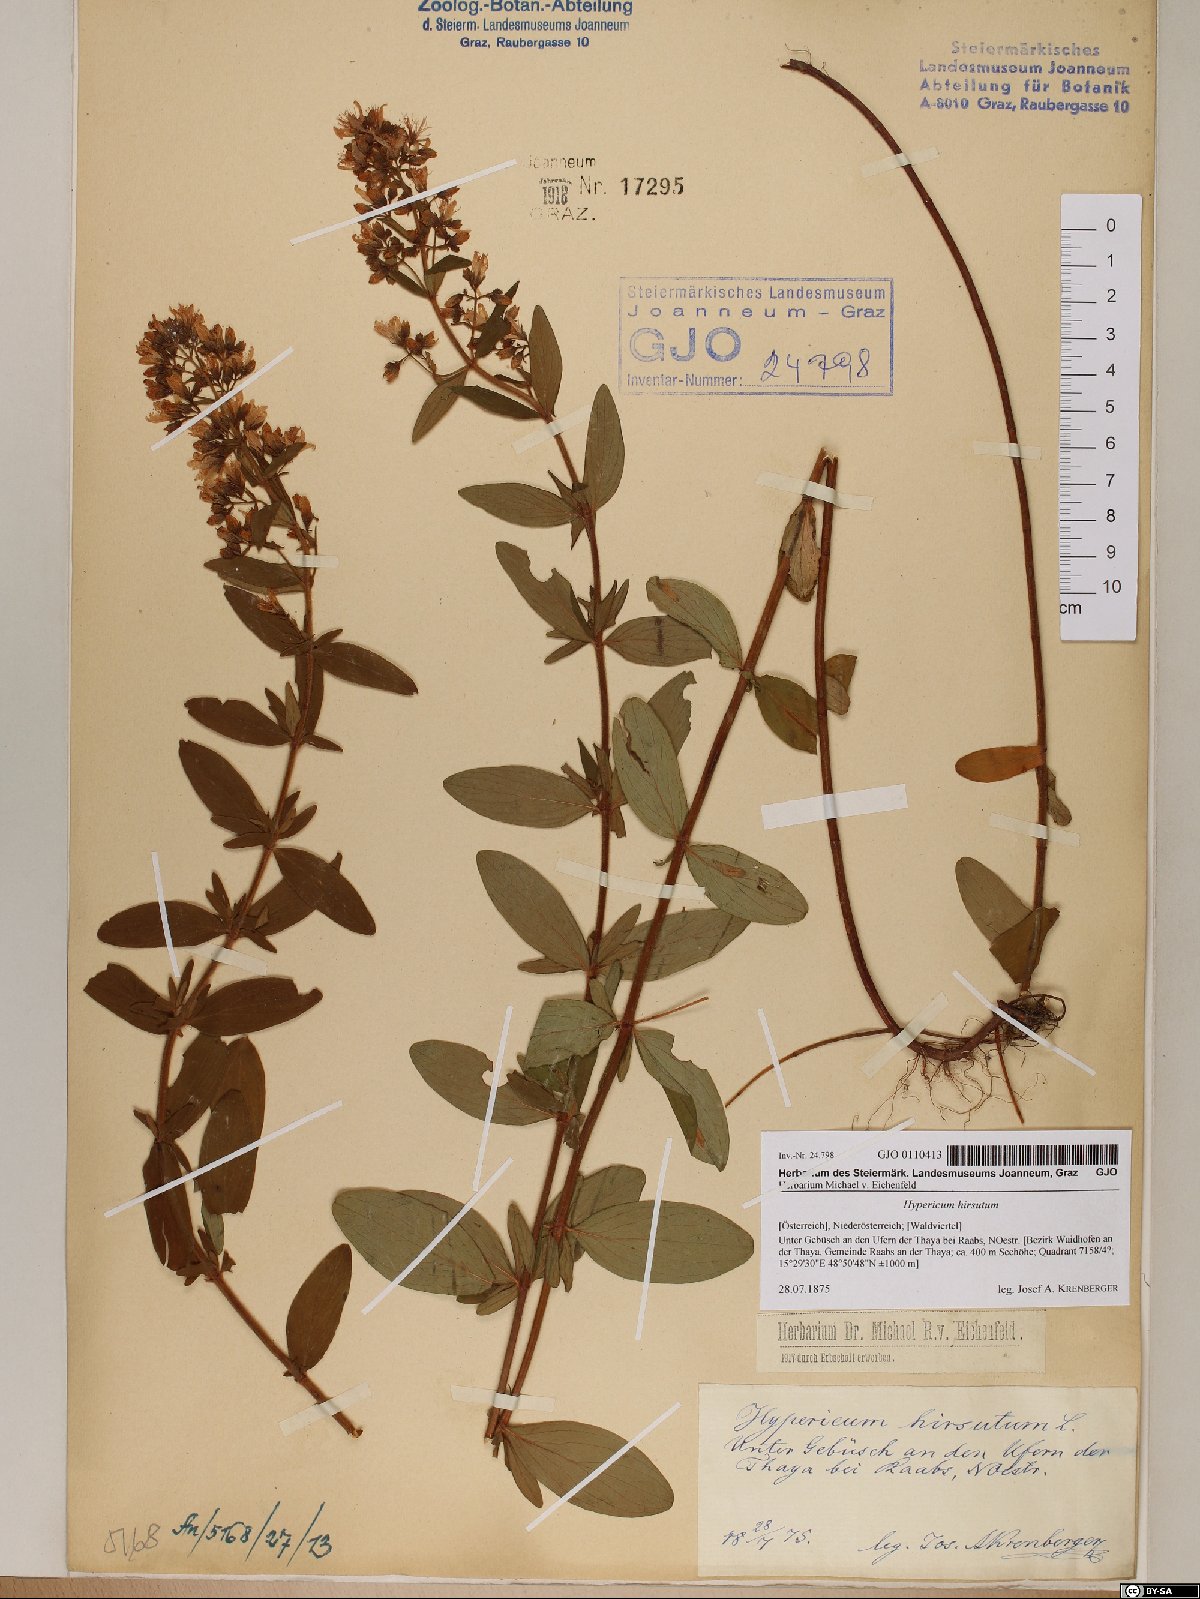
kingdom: Plantae
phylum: Tracheophyta
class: Magnoliopsida
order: Malpighiales
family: Hypericaceae
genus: Hypericum
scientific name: Hypericum hirsutum
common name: Hairy st. john's-wort
